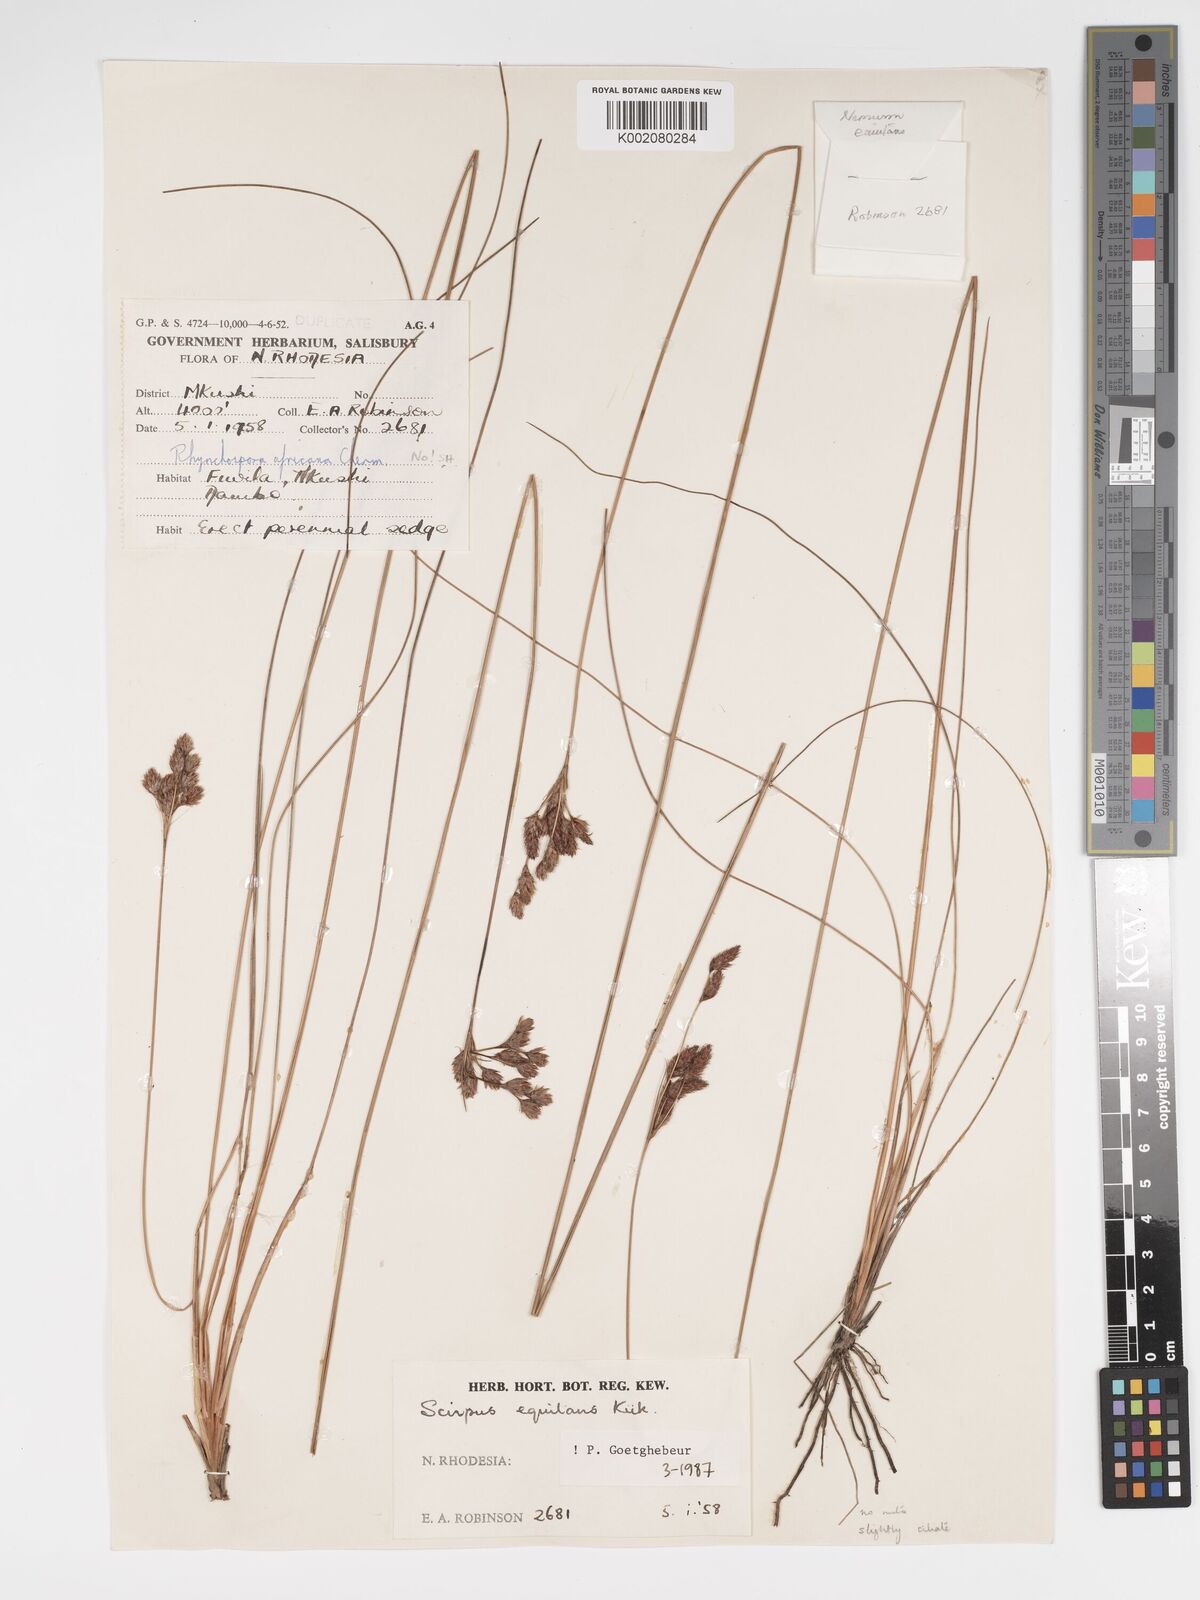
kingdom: Plantae
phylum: Tracheophyta
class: Liliopsida
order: Poales
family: Cyperaceae
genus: Bulbostylis
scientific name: Bulbostylis equitans
